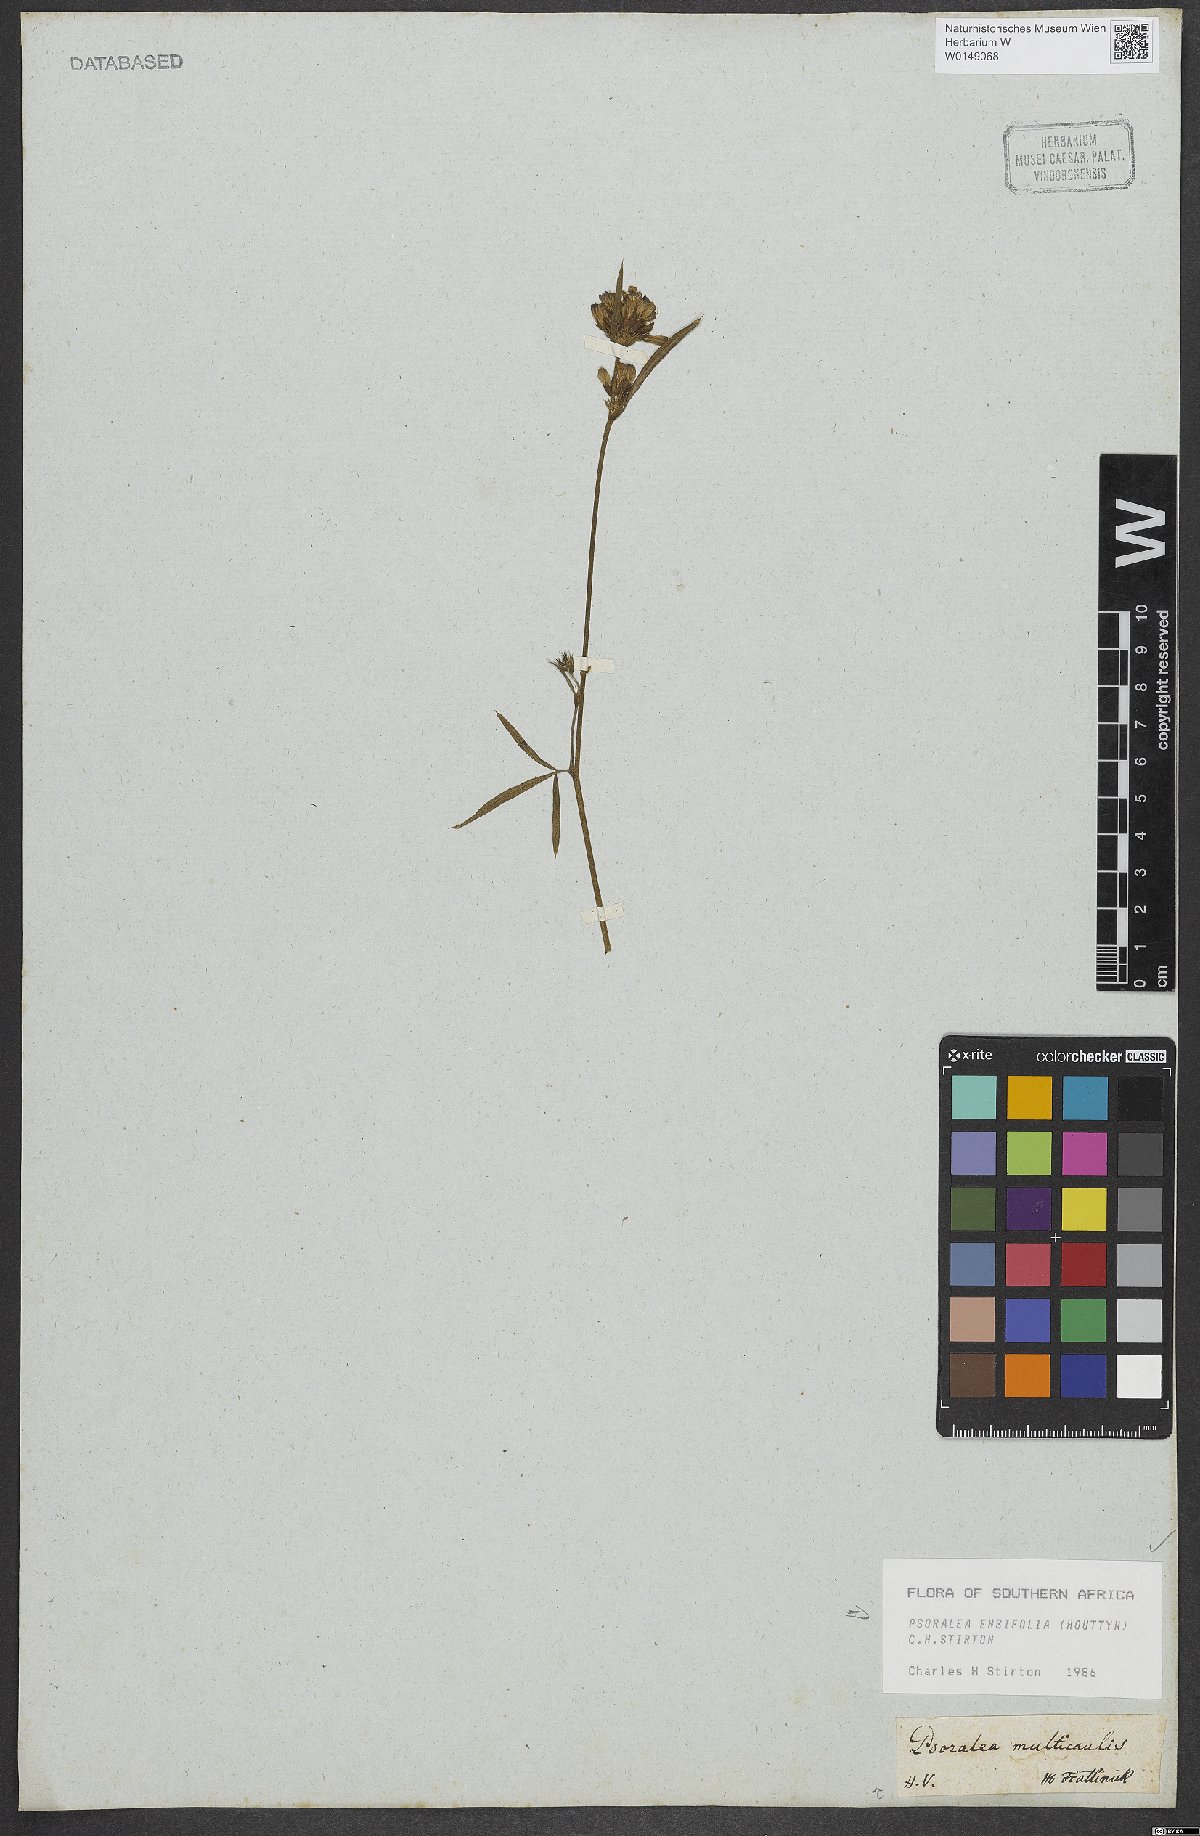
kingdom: Plantae
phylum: Tracheophyta
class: Magnoliopsida
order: Fabales
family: Fabaceae
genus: Psoralea
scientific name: Psoralea ensifolia
